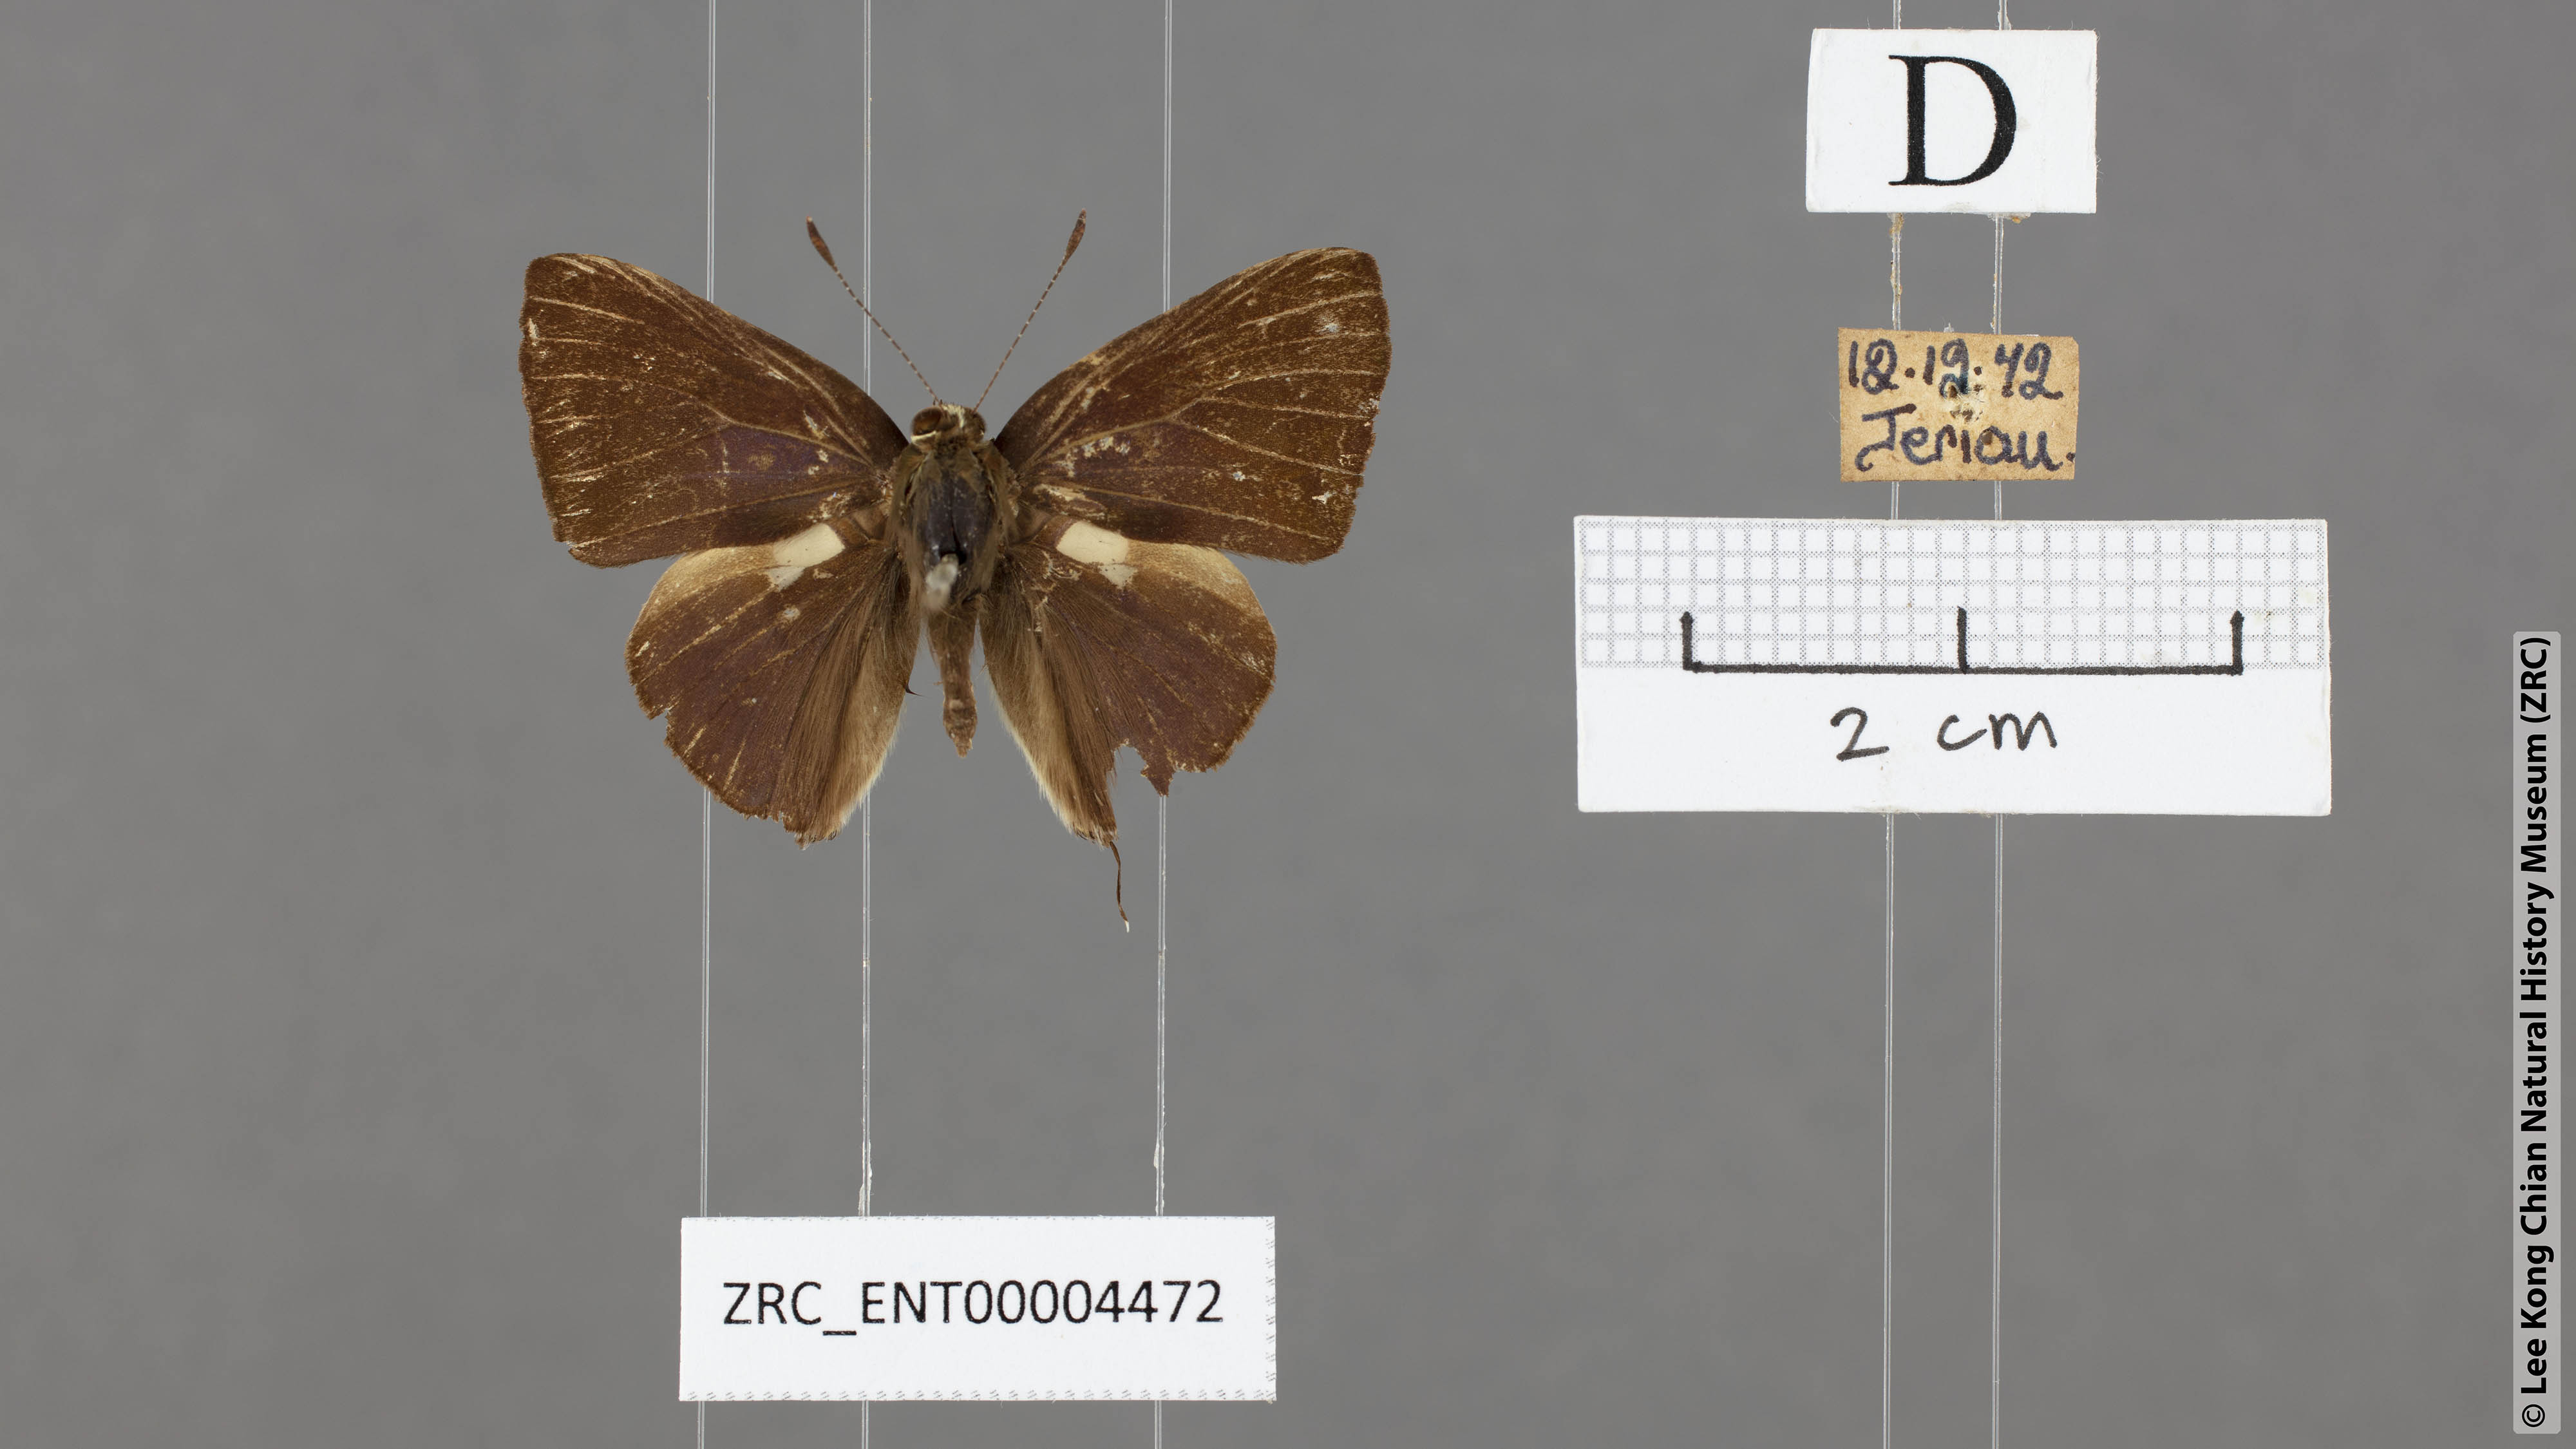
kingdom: Animalia
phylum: Arthropoda
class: Insecta
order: Lepidoptera
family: Lycaenidae
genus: Rapala
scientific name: Rapala abnormis
